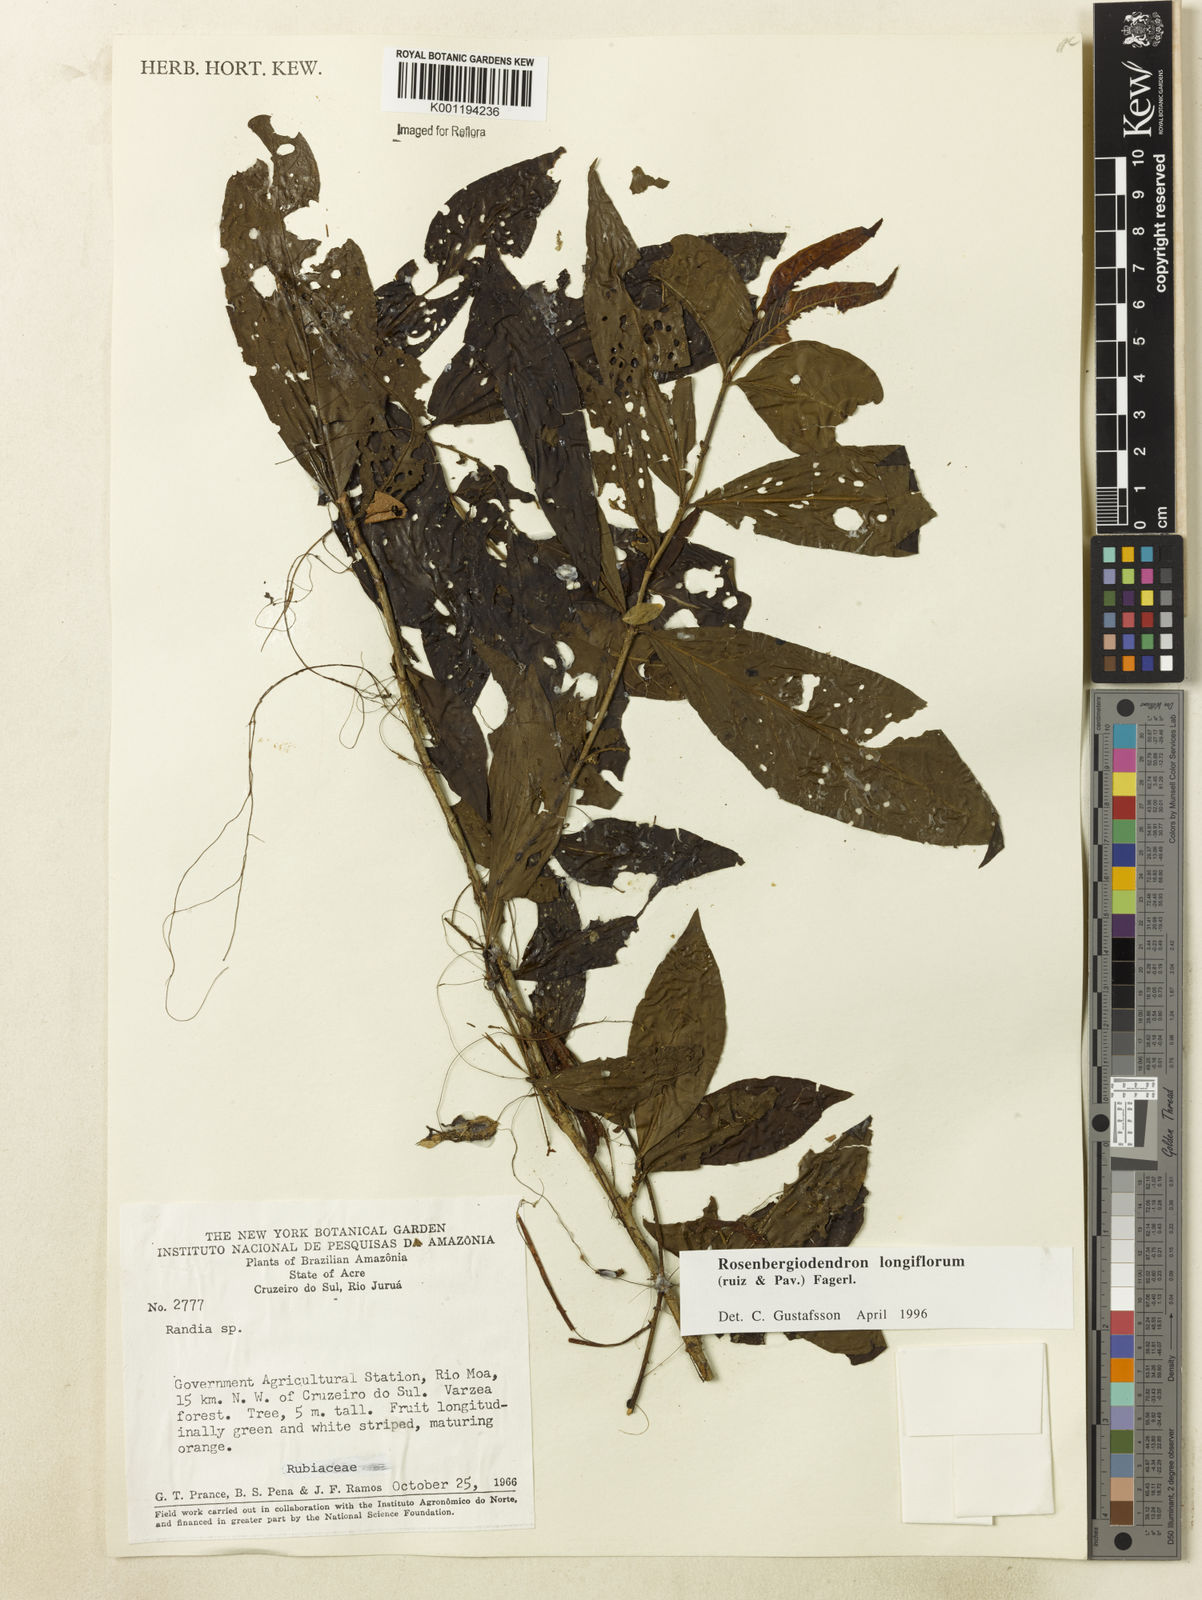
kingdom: Plantae
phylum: Tracheophyta
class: Magnoliopsida
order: Gentianales
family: Rubiaceae
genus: Rosenbergiodendron
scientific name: Rosenbergiodendron longiflorum
